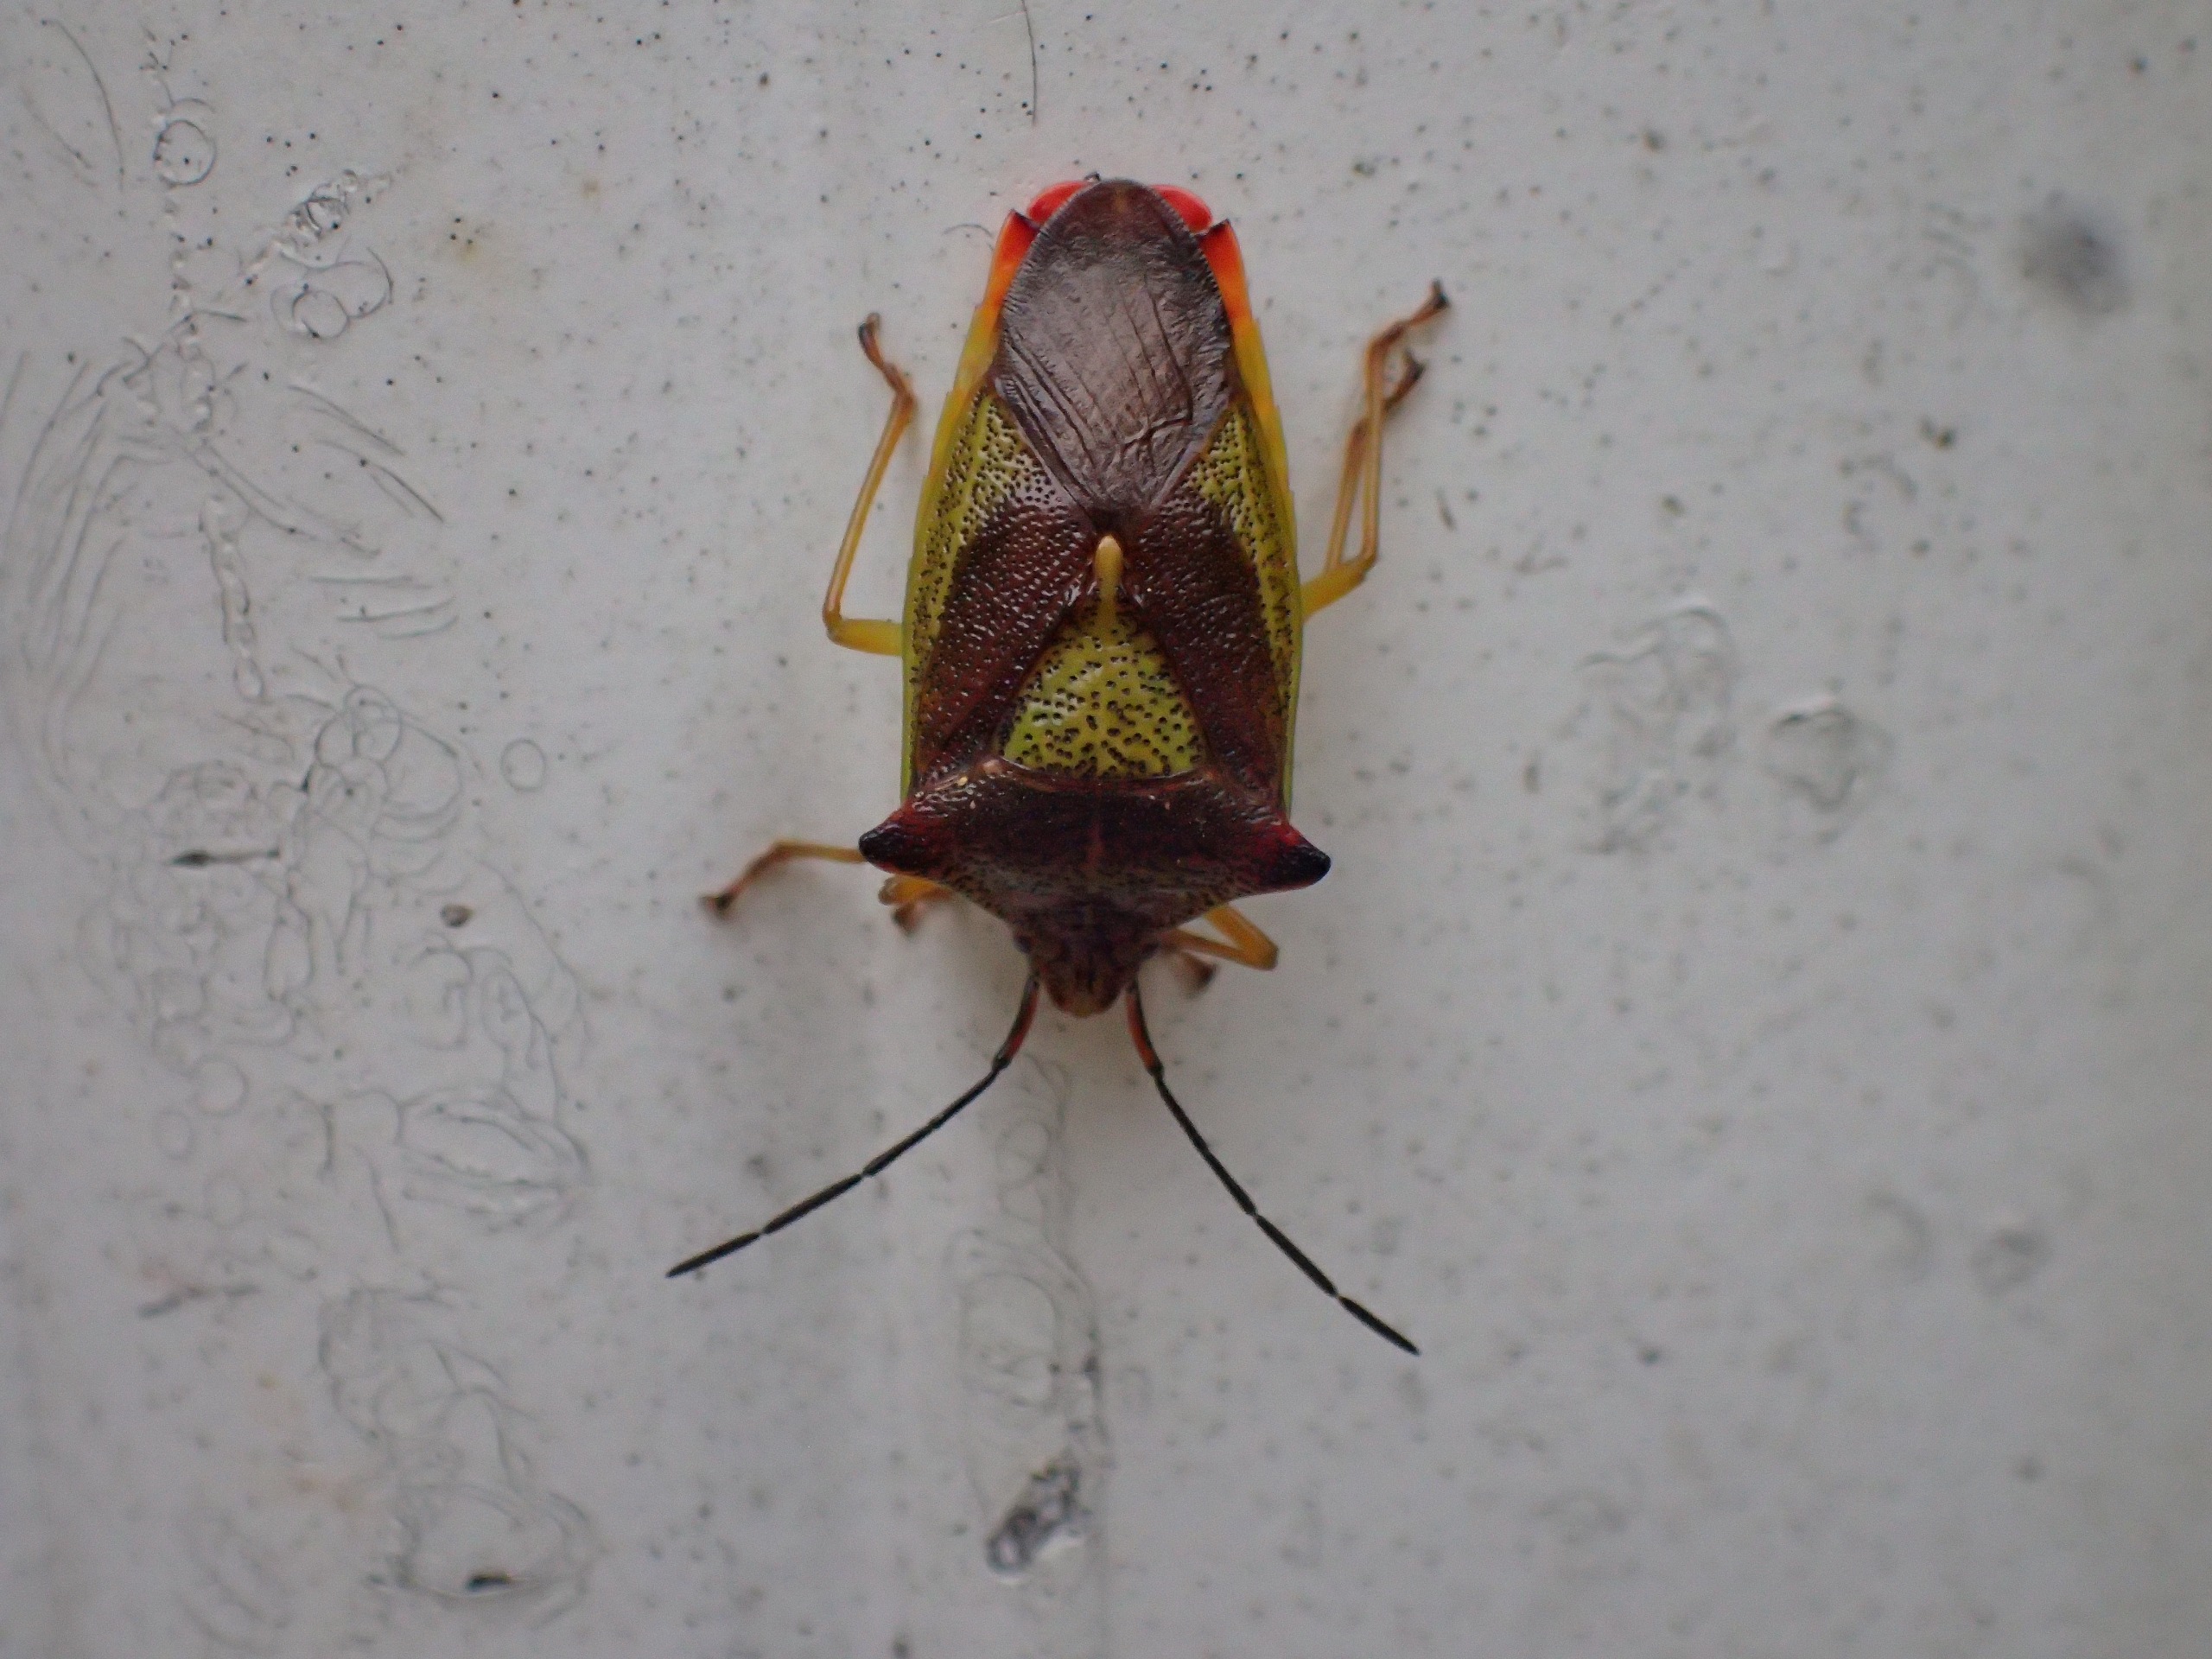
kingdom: Animalia
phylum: Arthropoda
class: Insecta
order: Hemiptera
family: Acanthosomatidae
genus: Acanthosoma
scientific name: Acanthosoma haemorrhoidale
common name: Stor løvtæge
